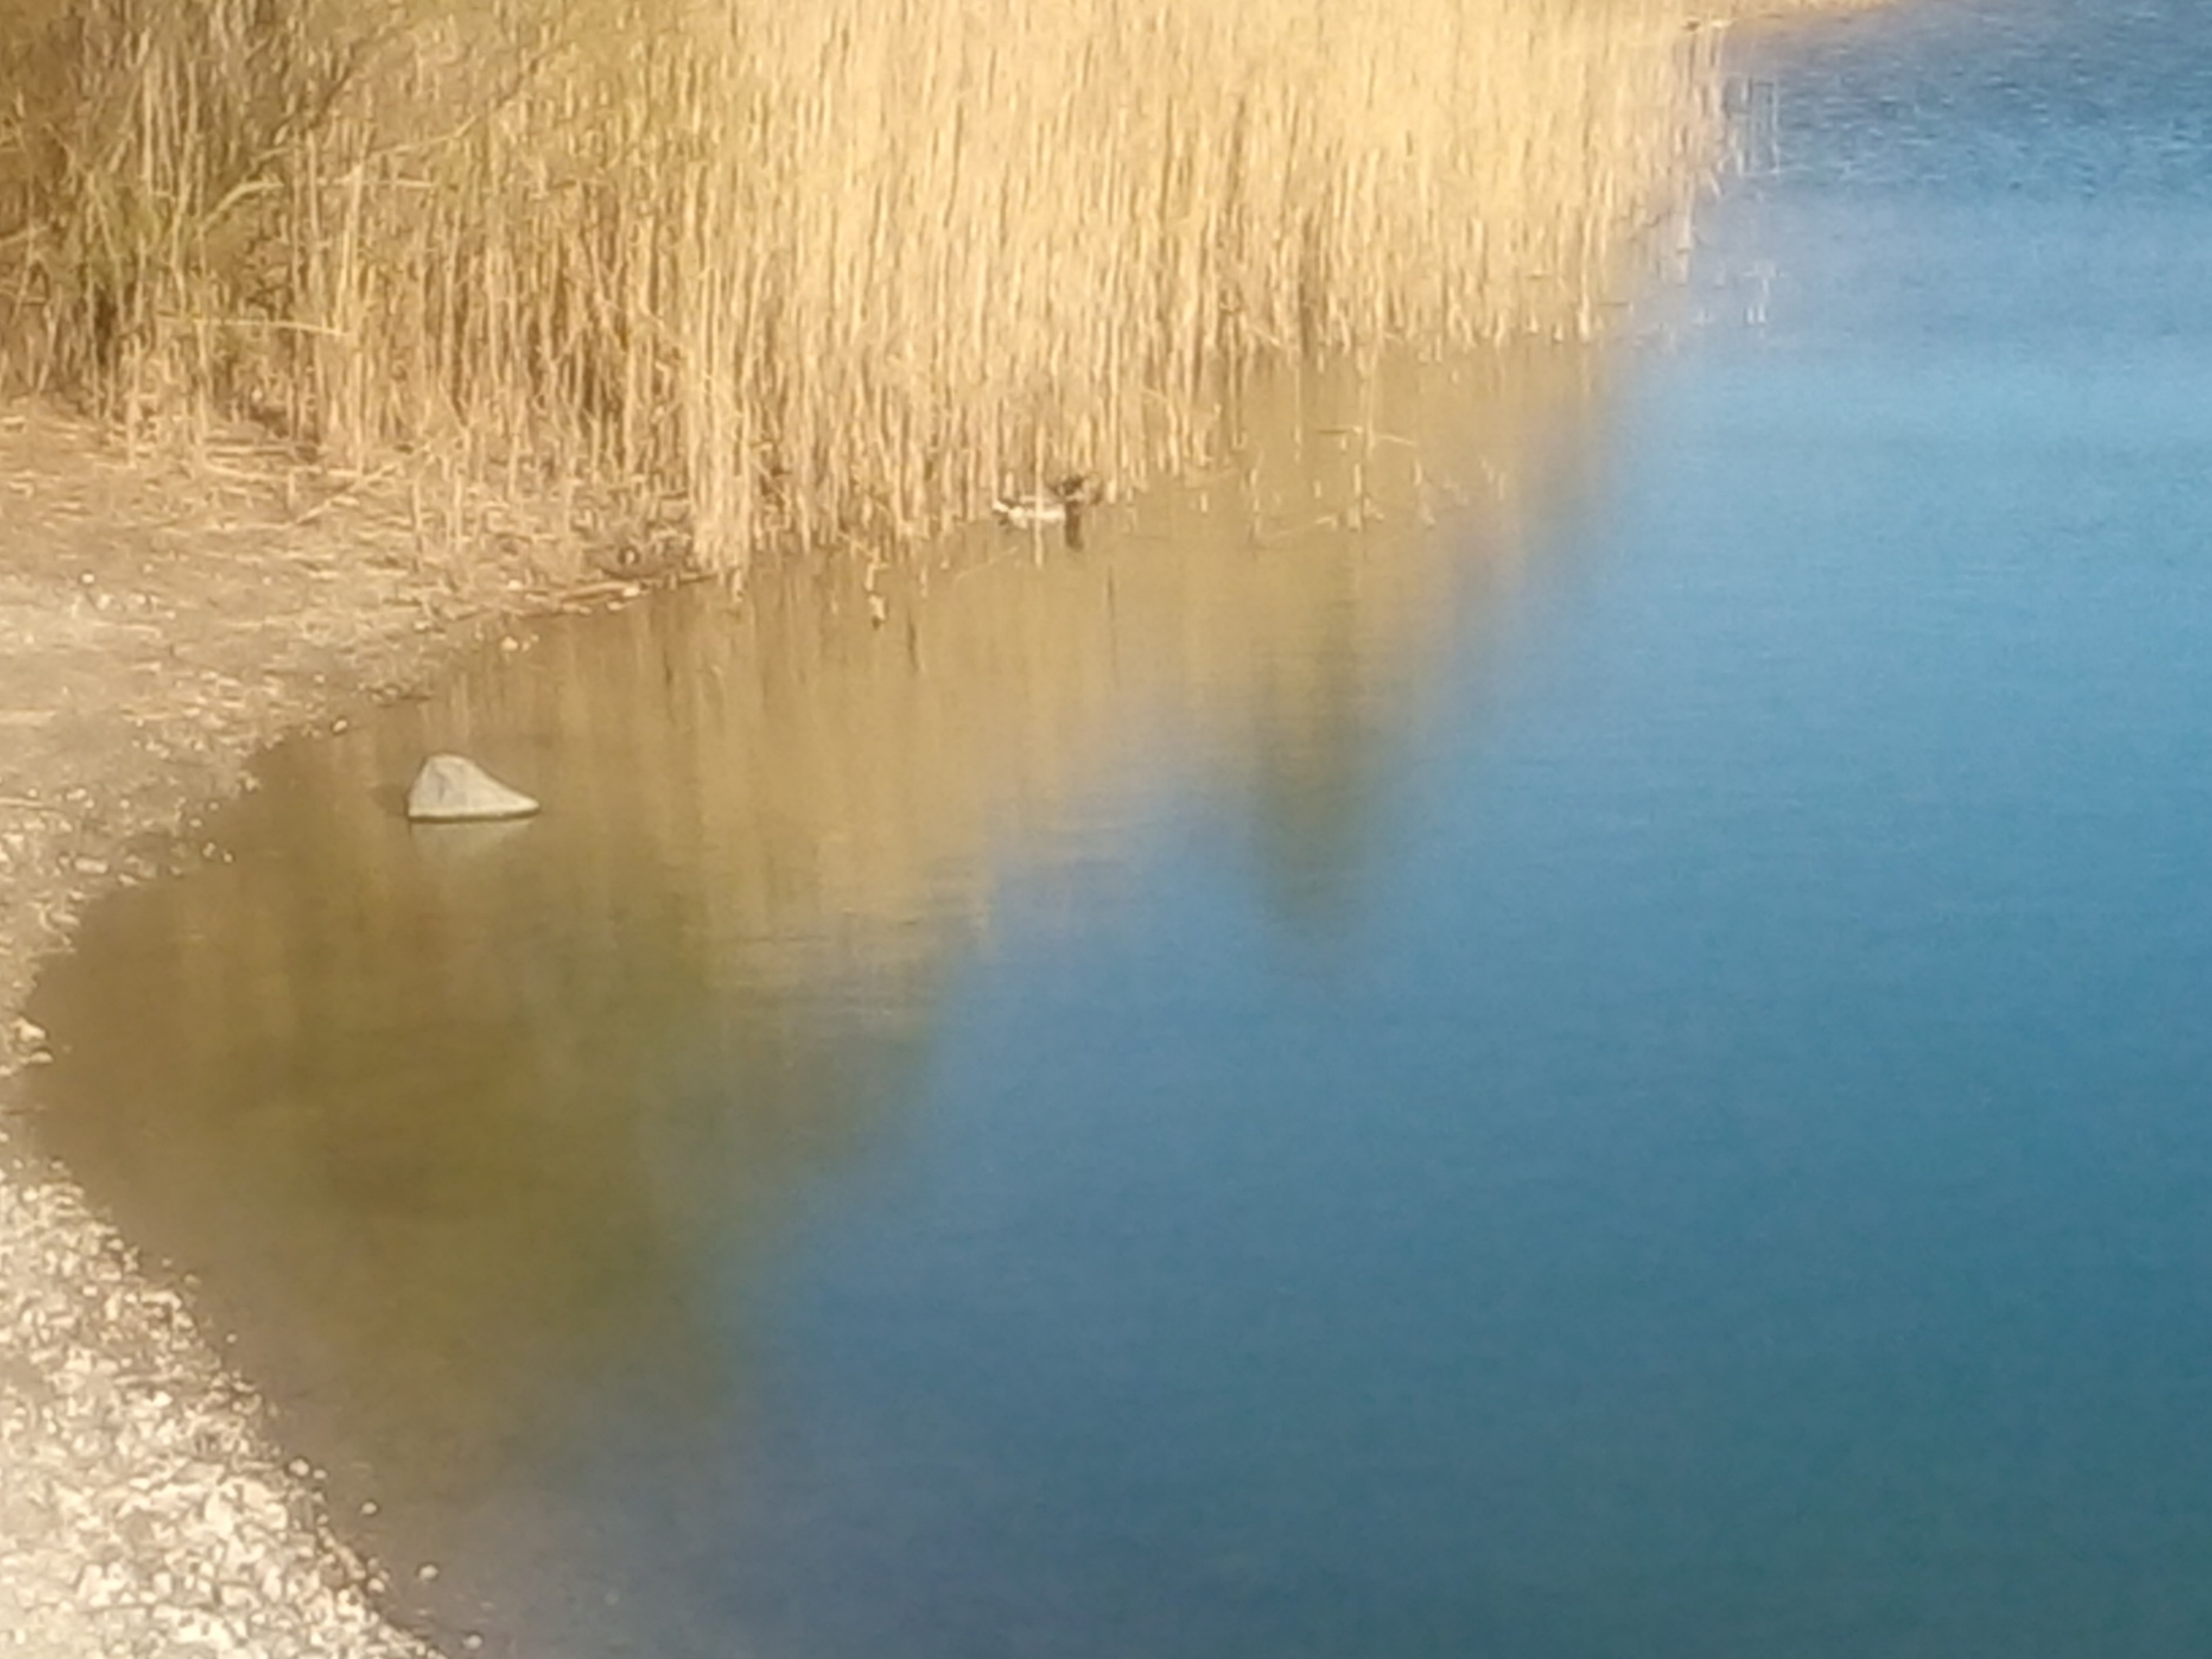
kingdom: Animalia
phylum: Chordata
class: Aves
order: Anseriformes
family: Anatidae
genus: Anas
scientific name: Anas platyrhynchos
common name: Gråand
